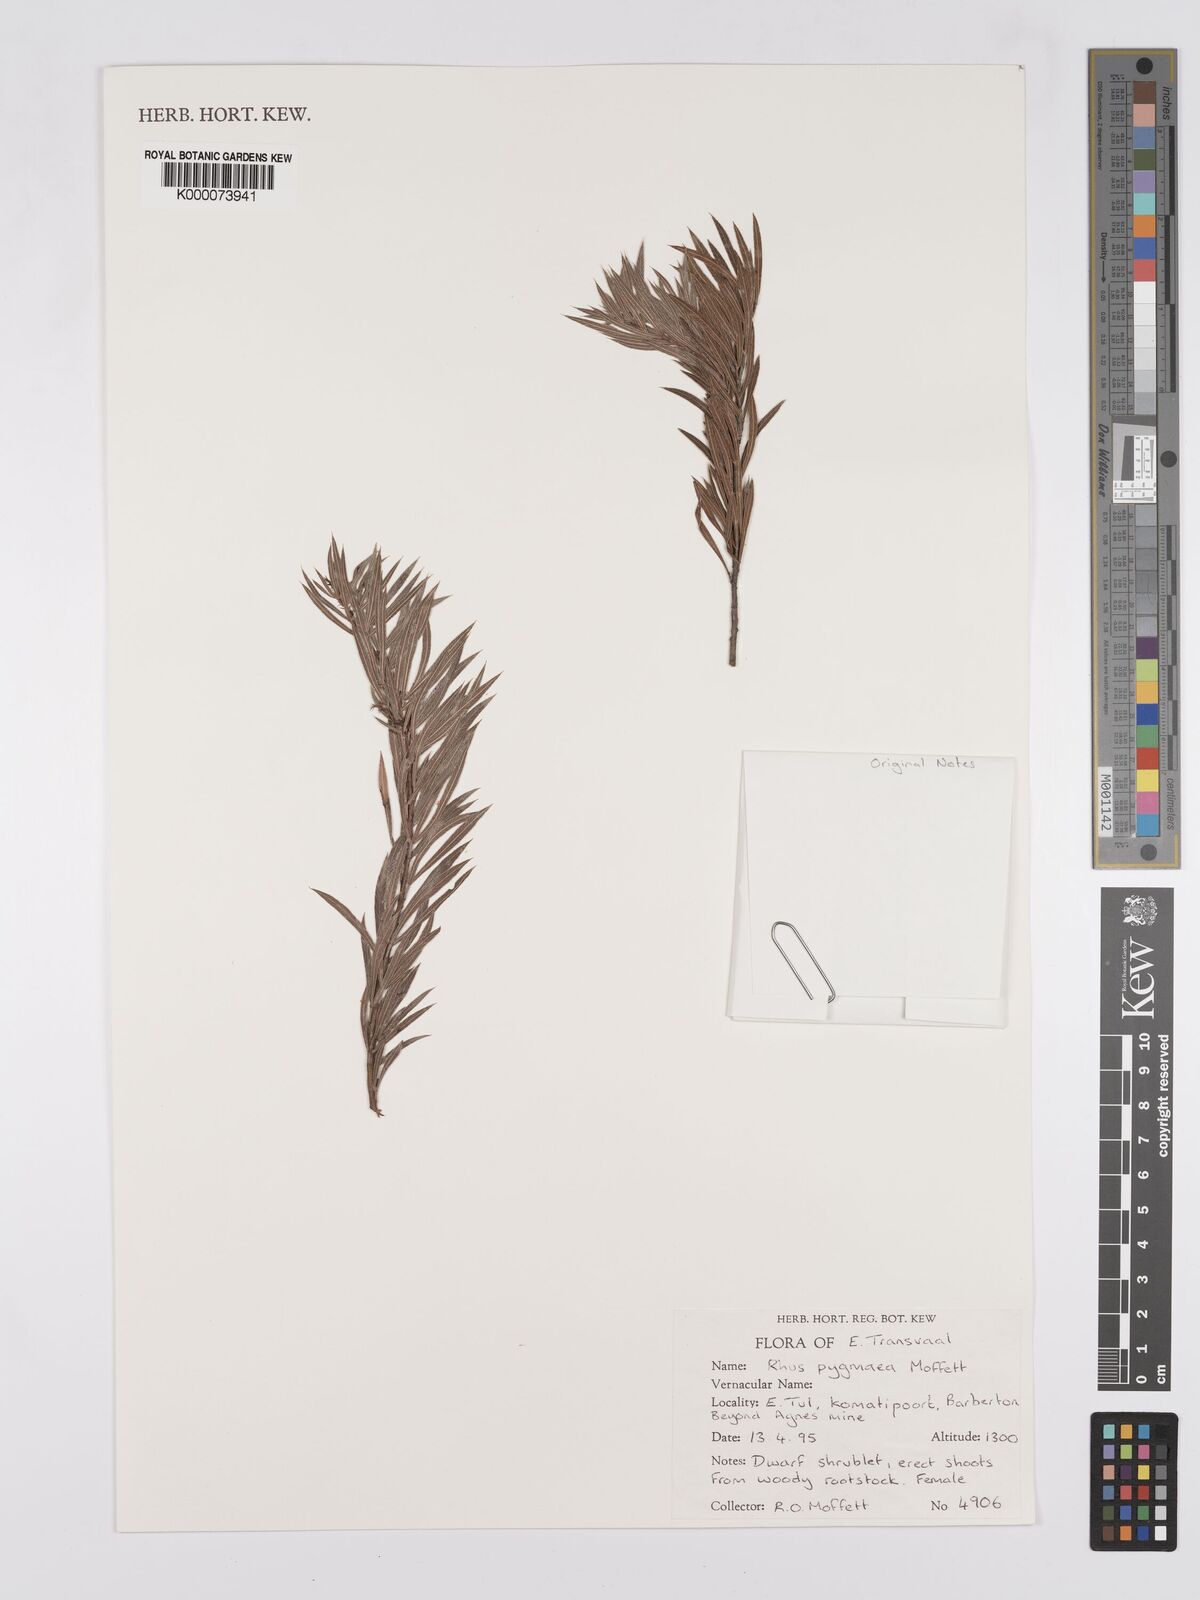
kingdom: Plantae
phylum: Tracheophyta
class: Magnoliopsida
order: Sapindales
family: Anacardiaceae
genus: Searsia
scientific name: Searsia pygmaea
